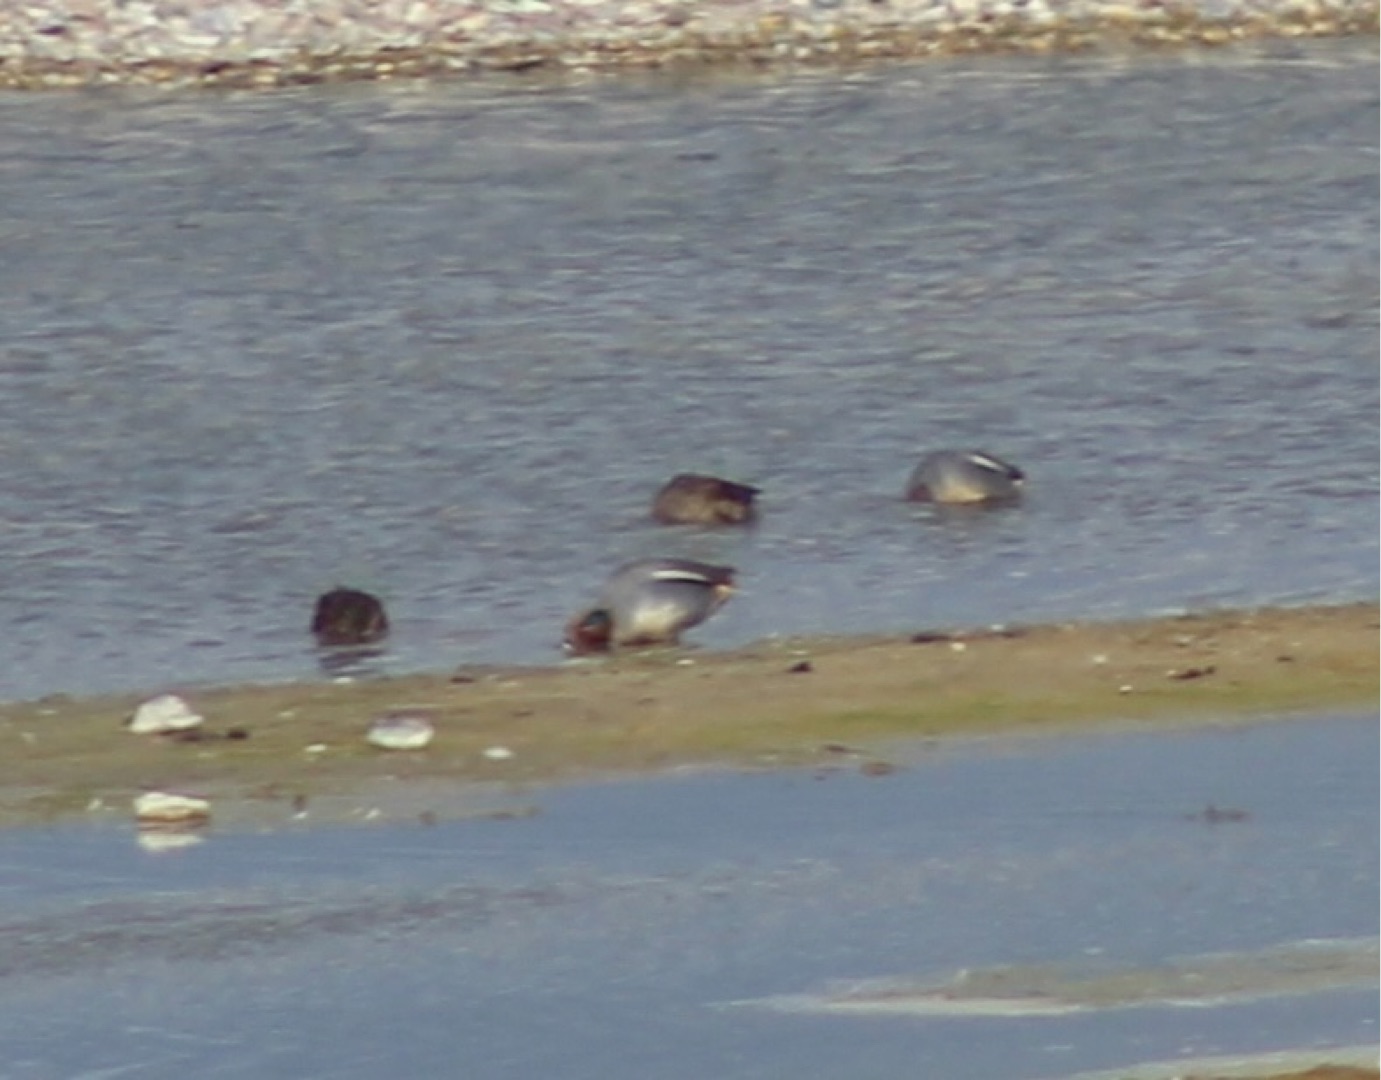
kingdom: Animalia
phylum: Chordata
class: Aves
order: Anseriformes
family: Anatidae
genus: Anas
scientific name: Anas crecca
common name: Krikand
